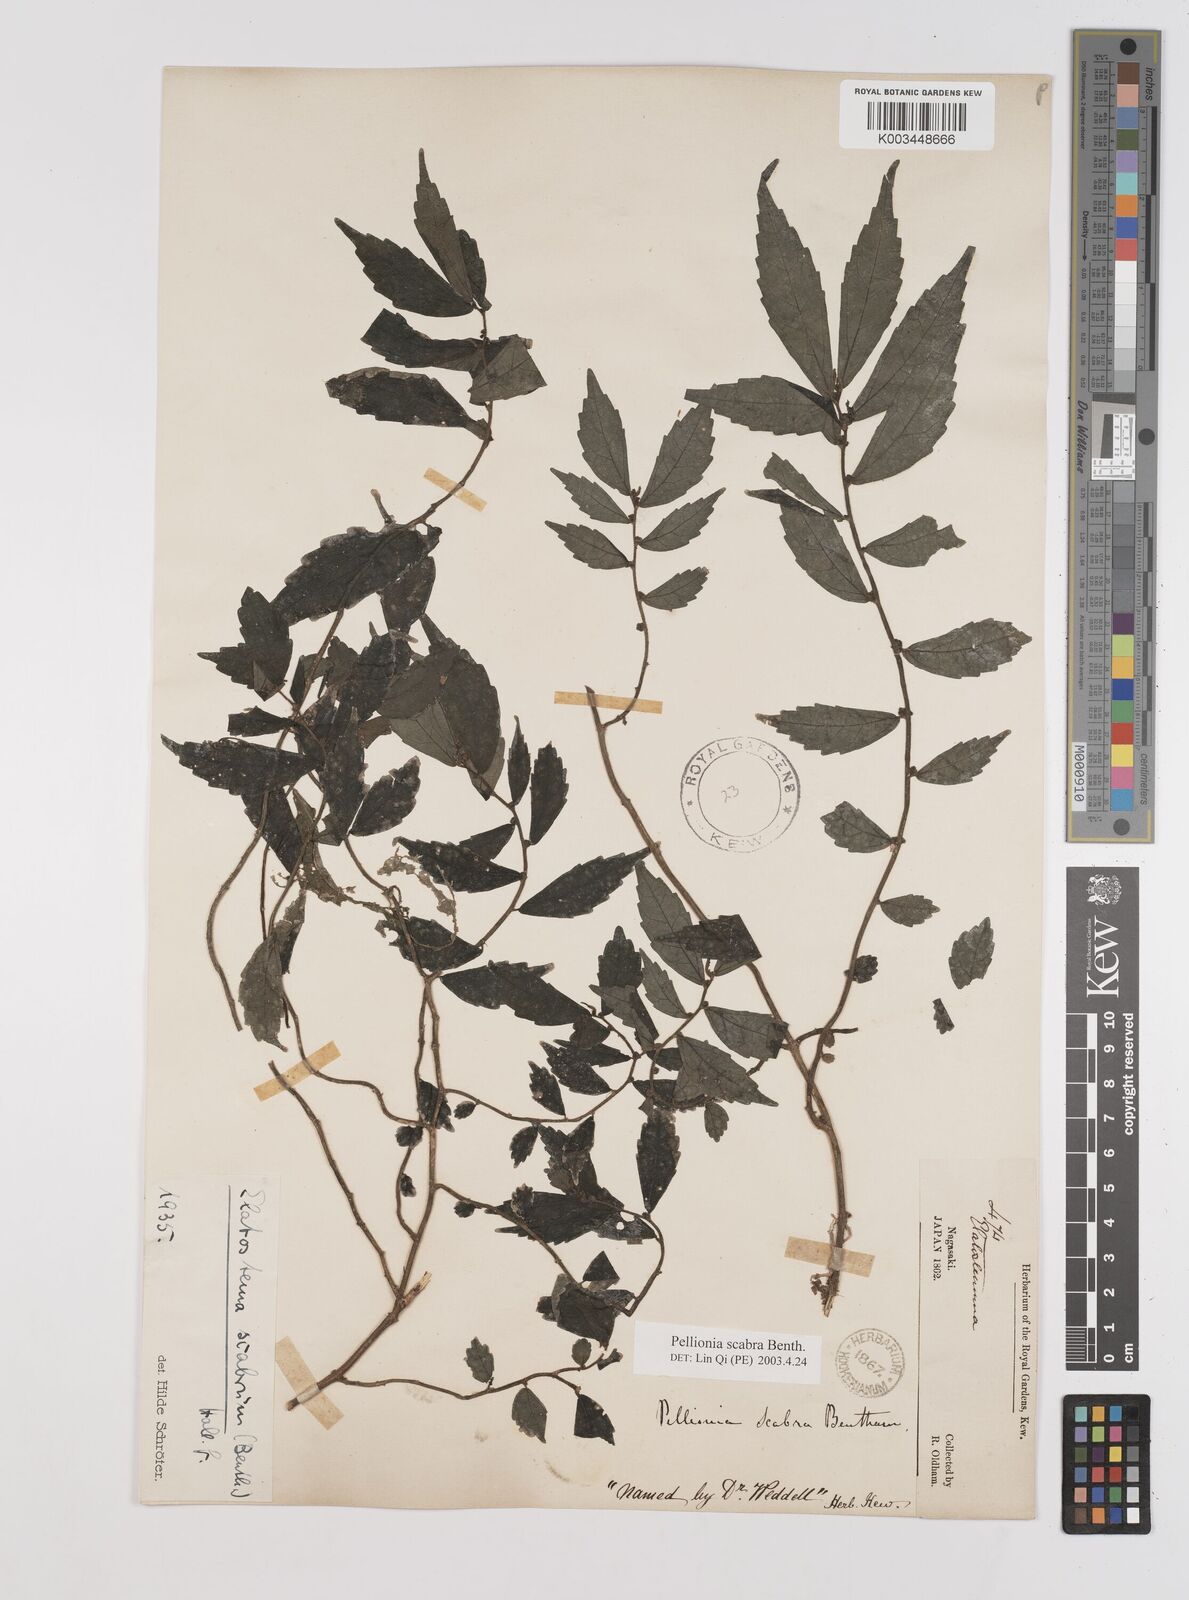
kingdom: Plantae
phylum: Tracheophyta
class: Magnoliopsida
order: Rosales
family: Urticaceae
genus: Elatostema
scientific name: Elatostema
